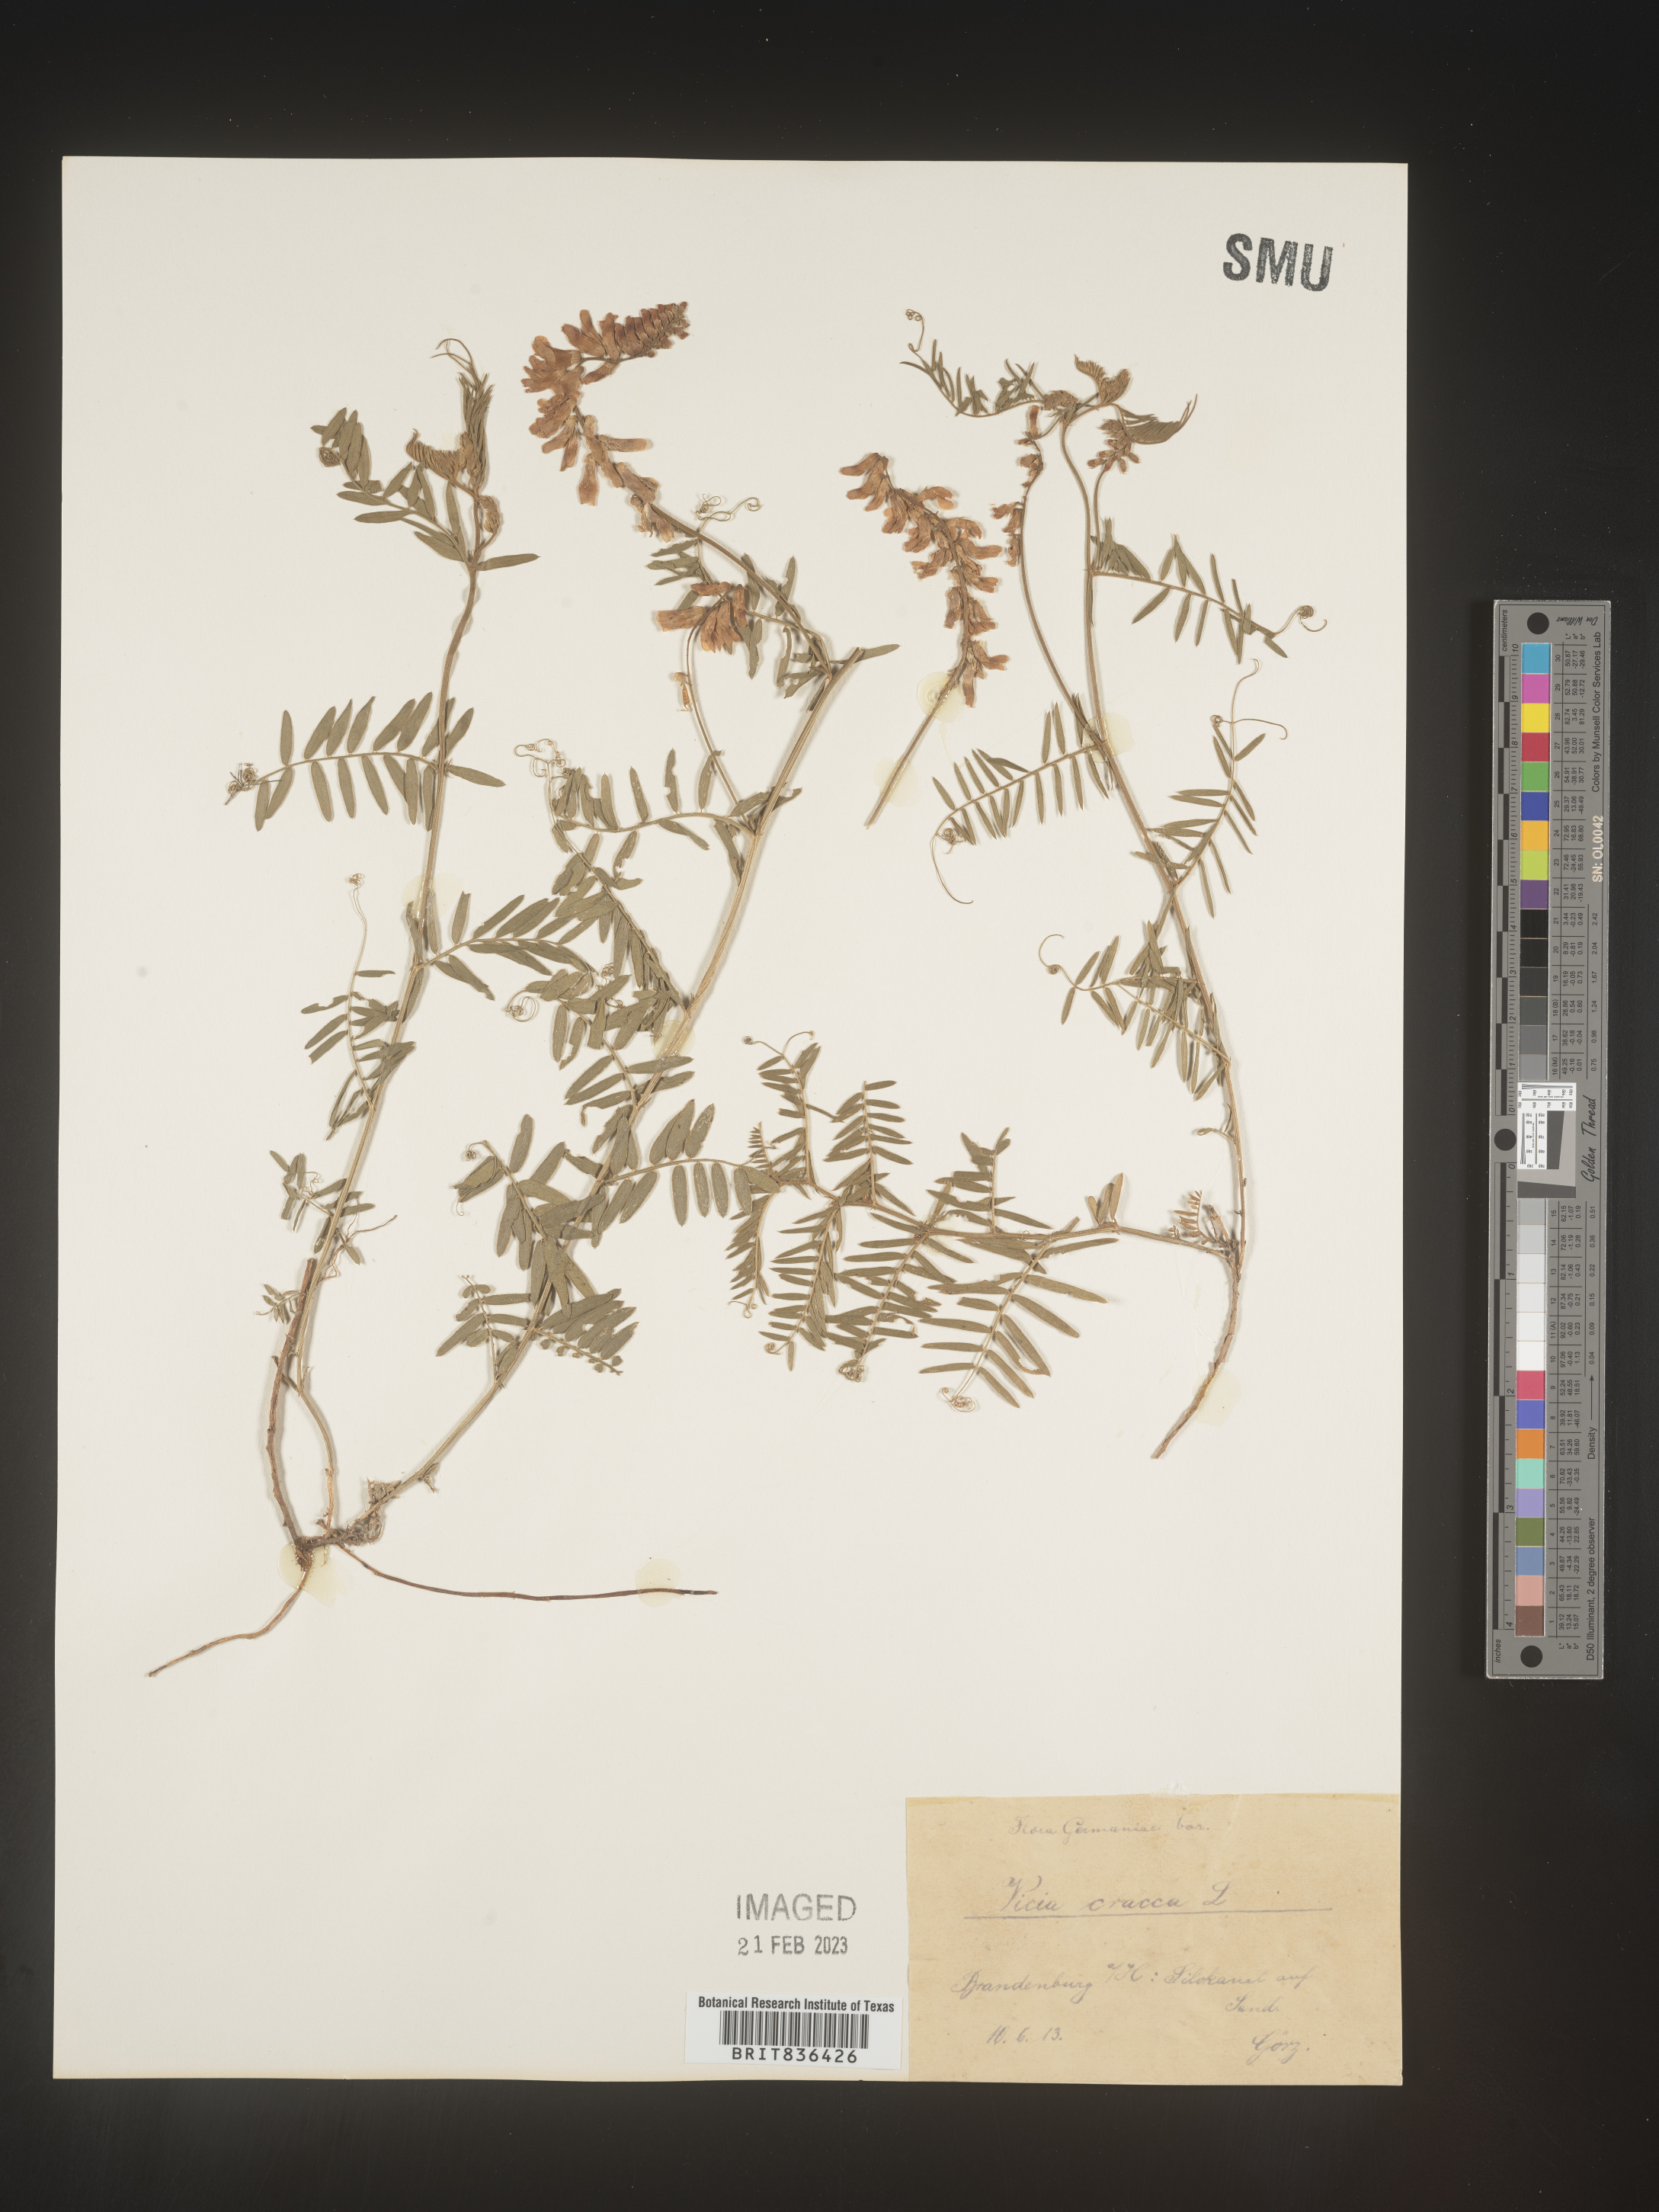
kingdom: Plantae
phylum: Tracheophyta
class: Magnoliopsida
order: Fabales
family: Fabaceae
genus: Vicia
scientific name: Vicia
